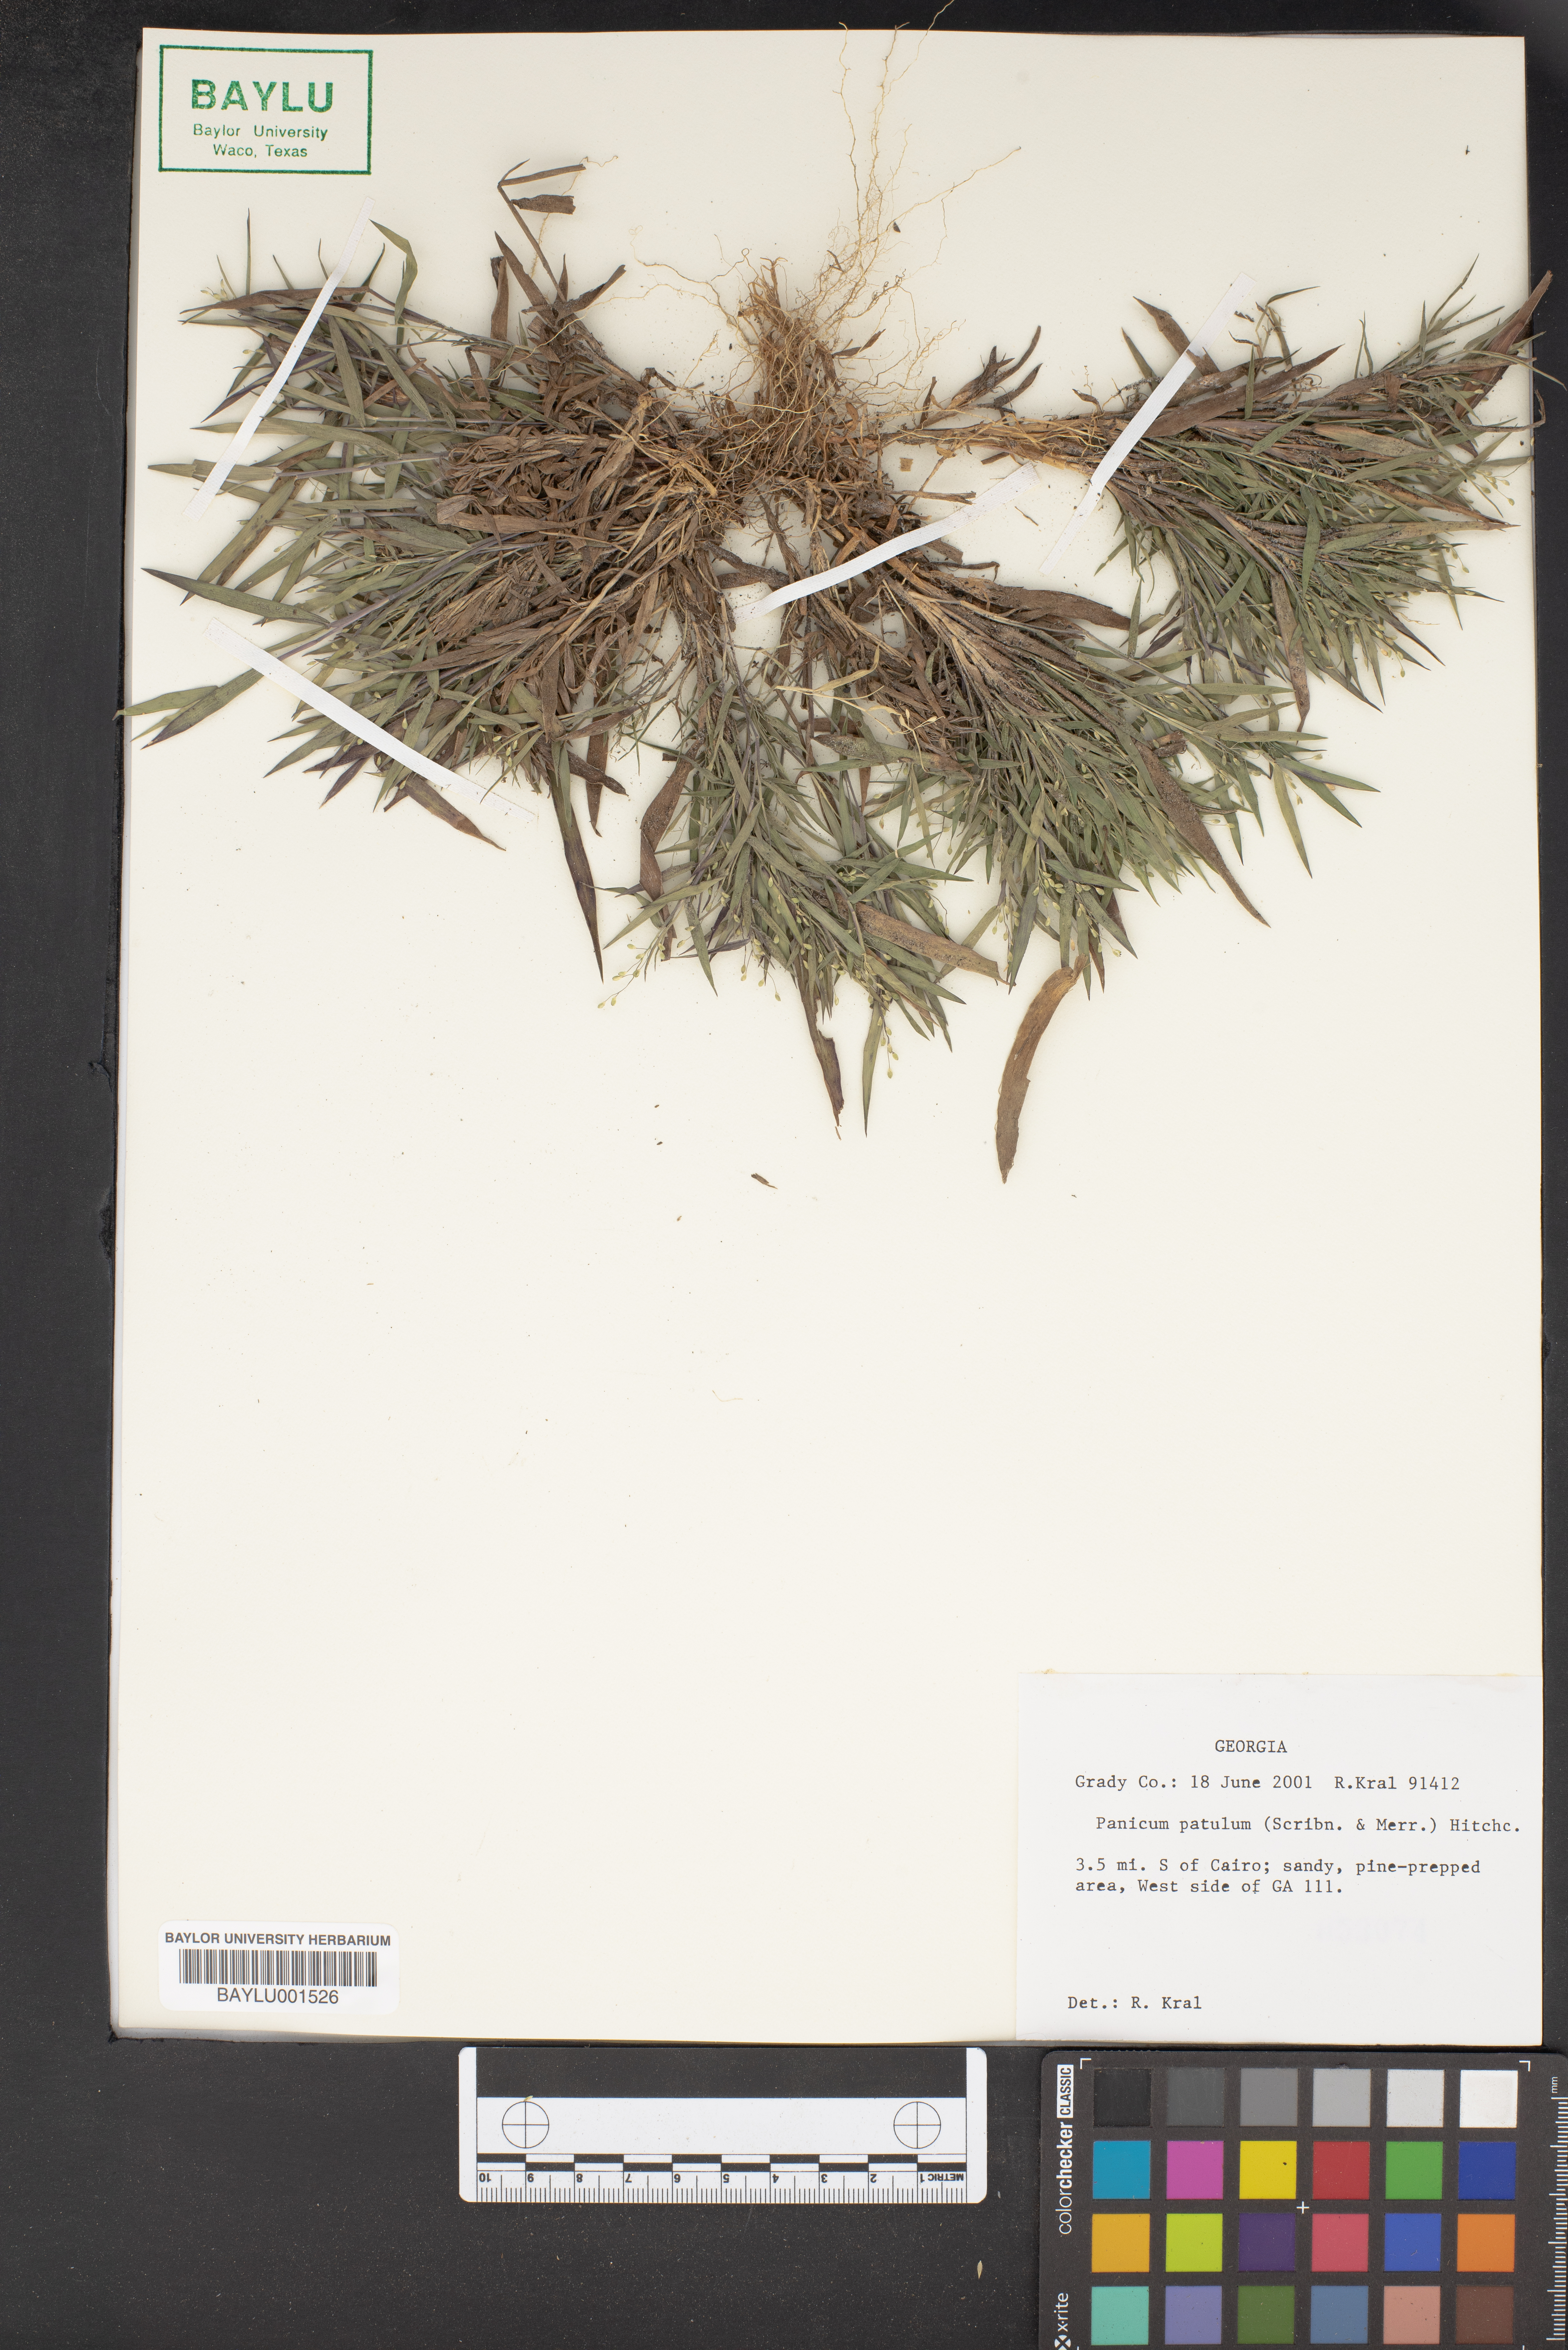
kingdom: Plantae
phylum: Tracheophyta
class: Liliopsida
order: Poales
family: Poaceae
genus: Dichanthelium
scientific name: Dichanthelium patulum
